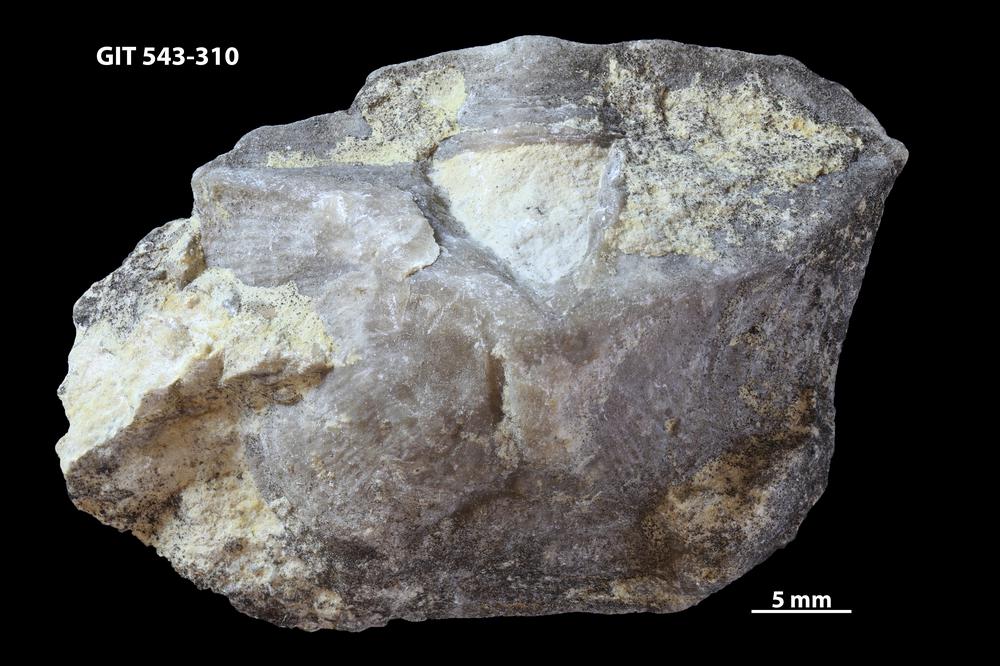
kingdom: Animalia
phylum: Brachiopoda
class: Rhynchonellata
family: Clitambonitidae
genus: Ilmarinia
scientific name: Ilmarinia dimorpha
